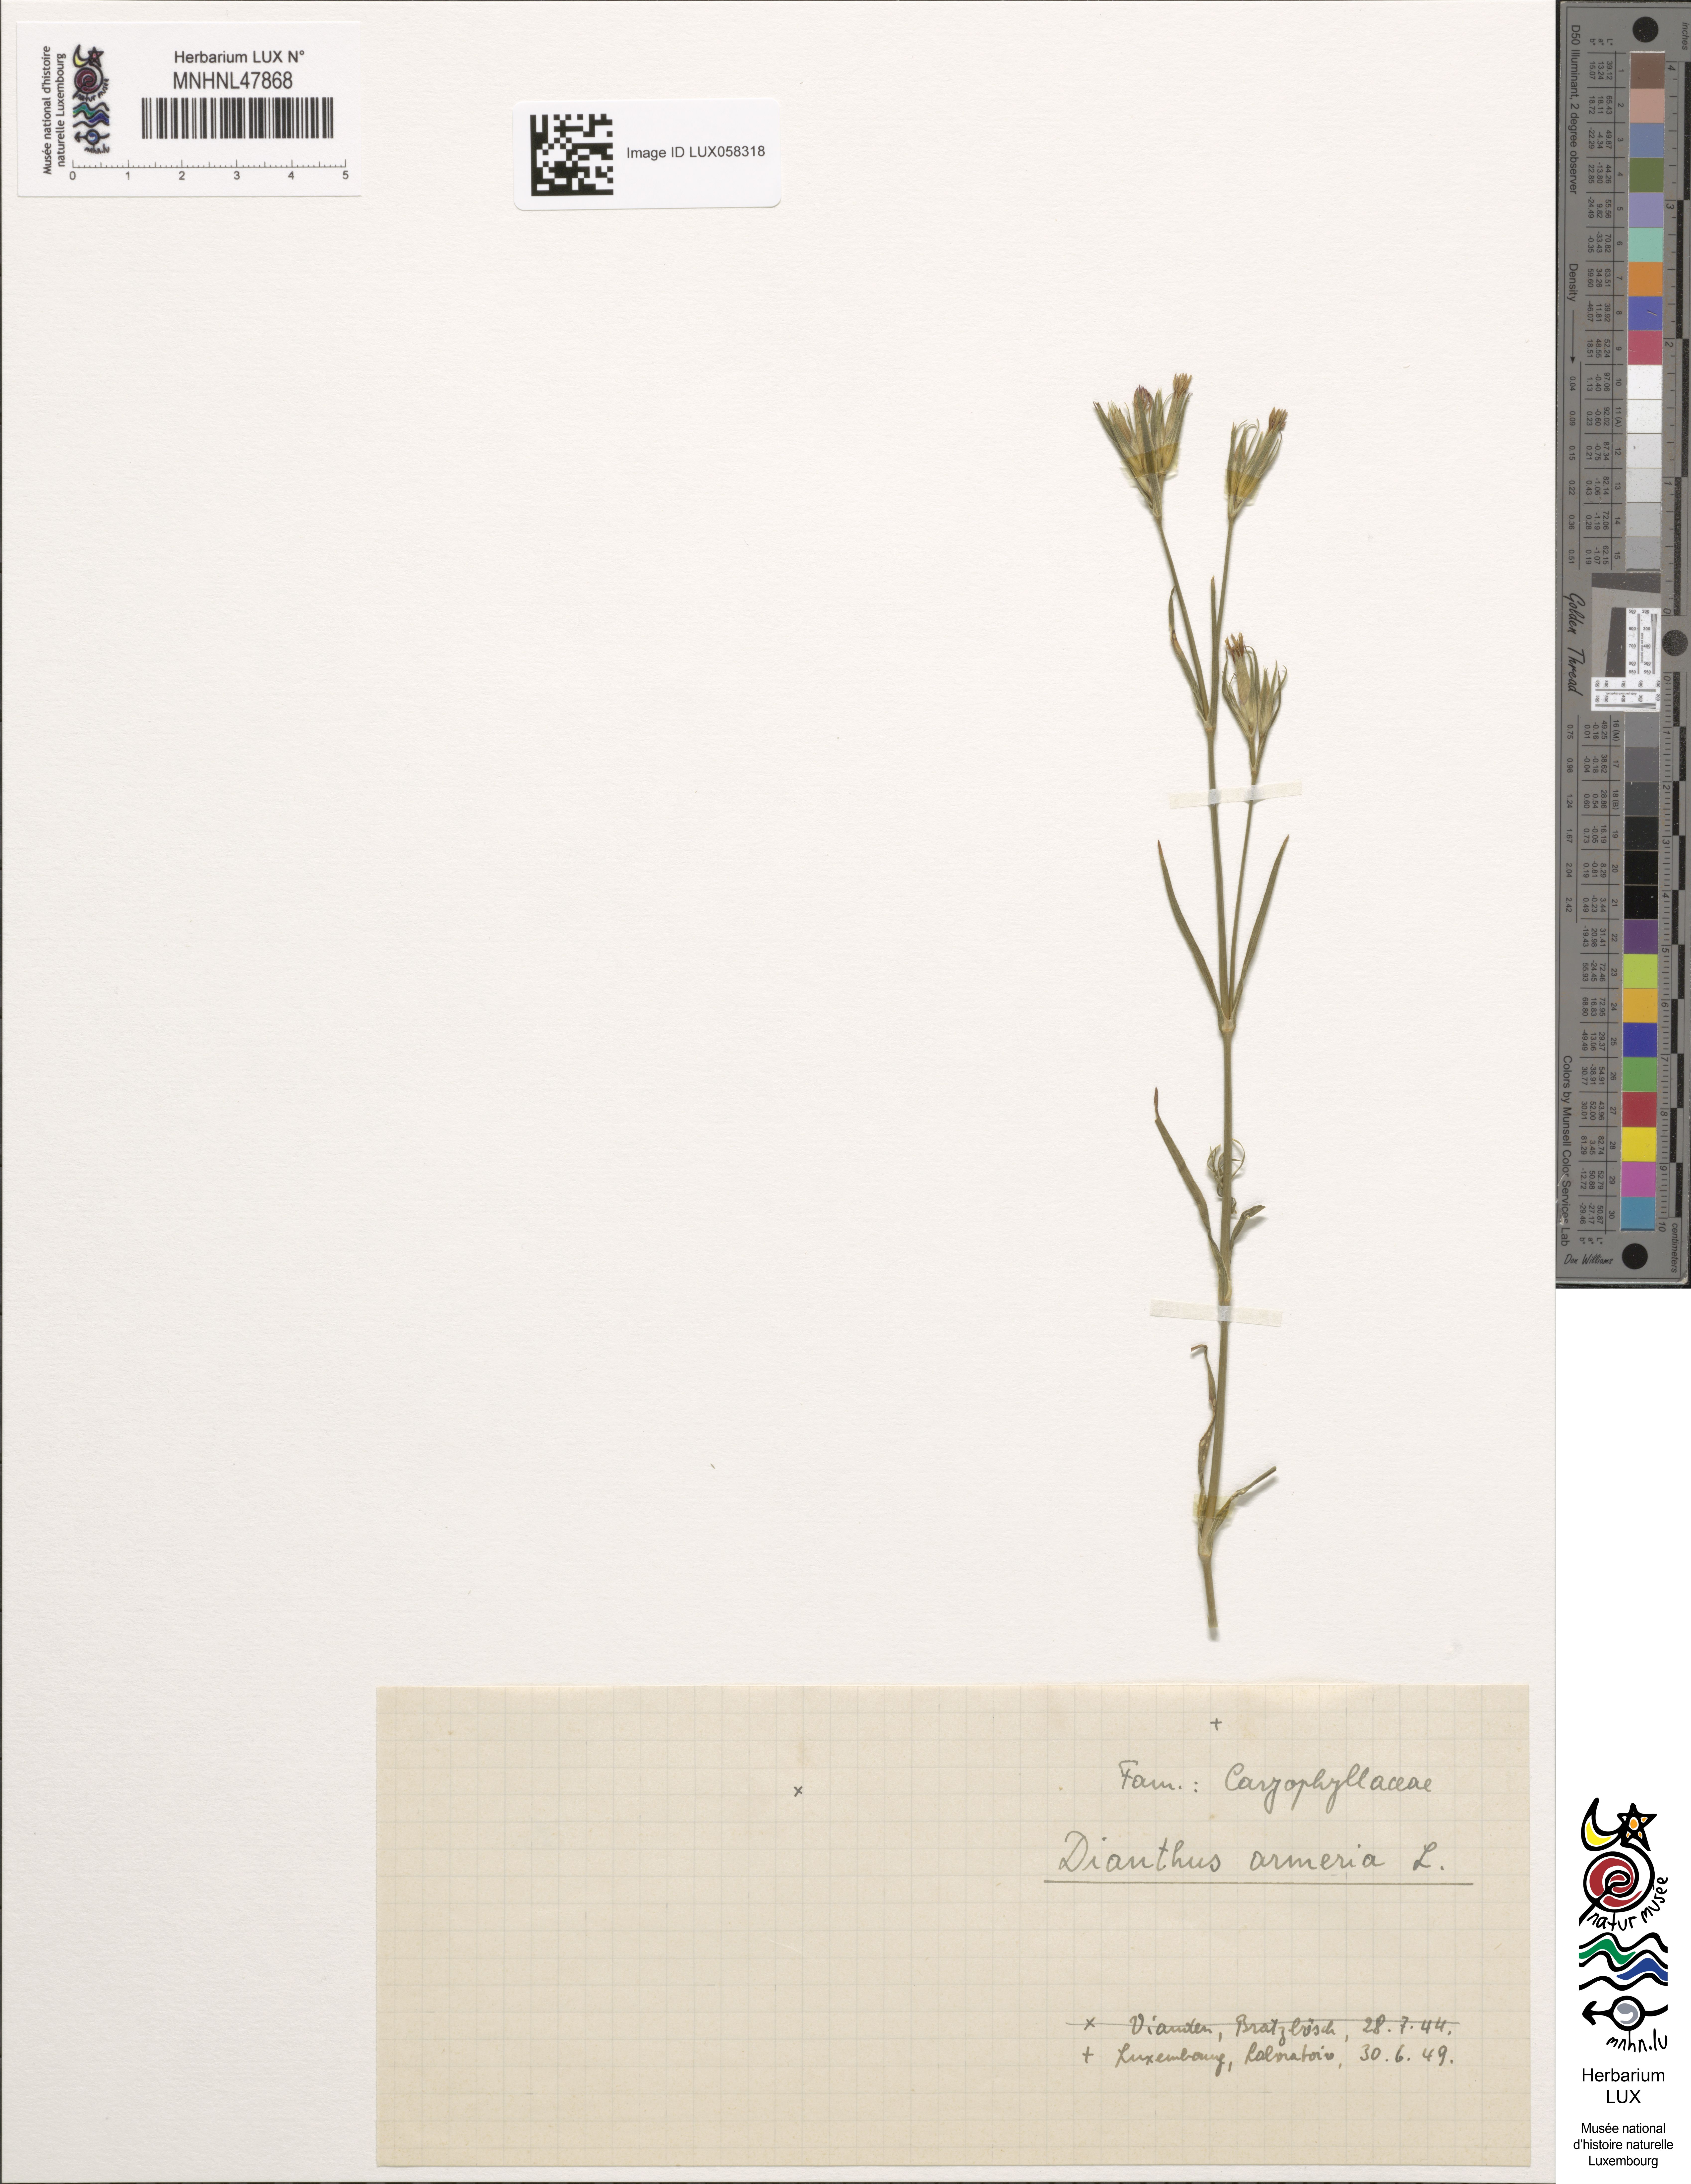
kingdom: Plantae
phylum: Tracheophyta
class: Magnoliopsida
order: Caryophyllales
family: Caryophyllaceae
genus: Dianthus
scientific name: Dianthus armeria
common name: Deptford pink
